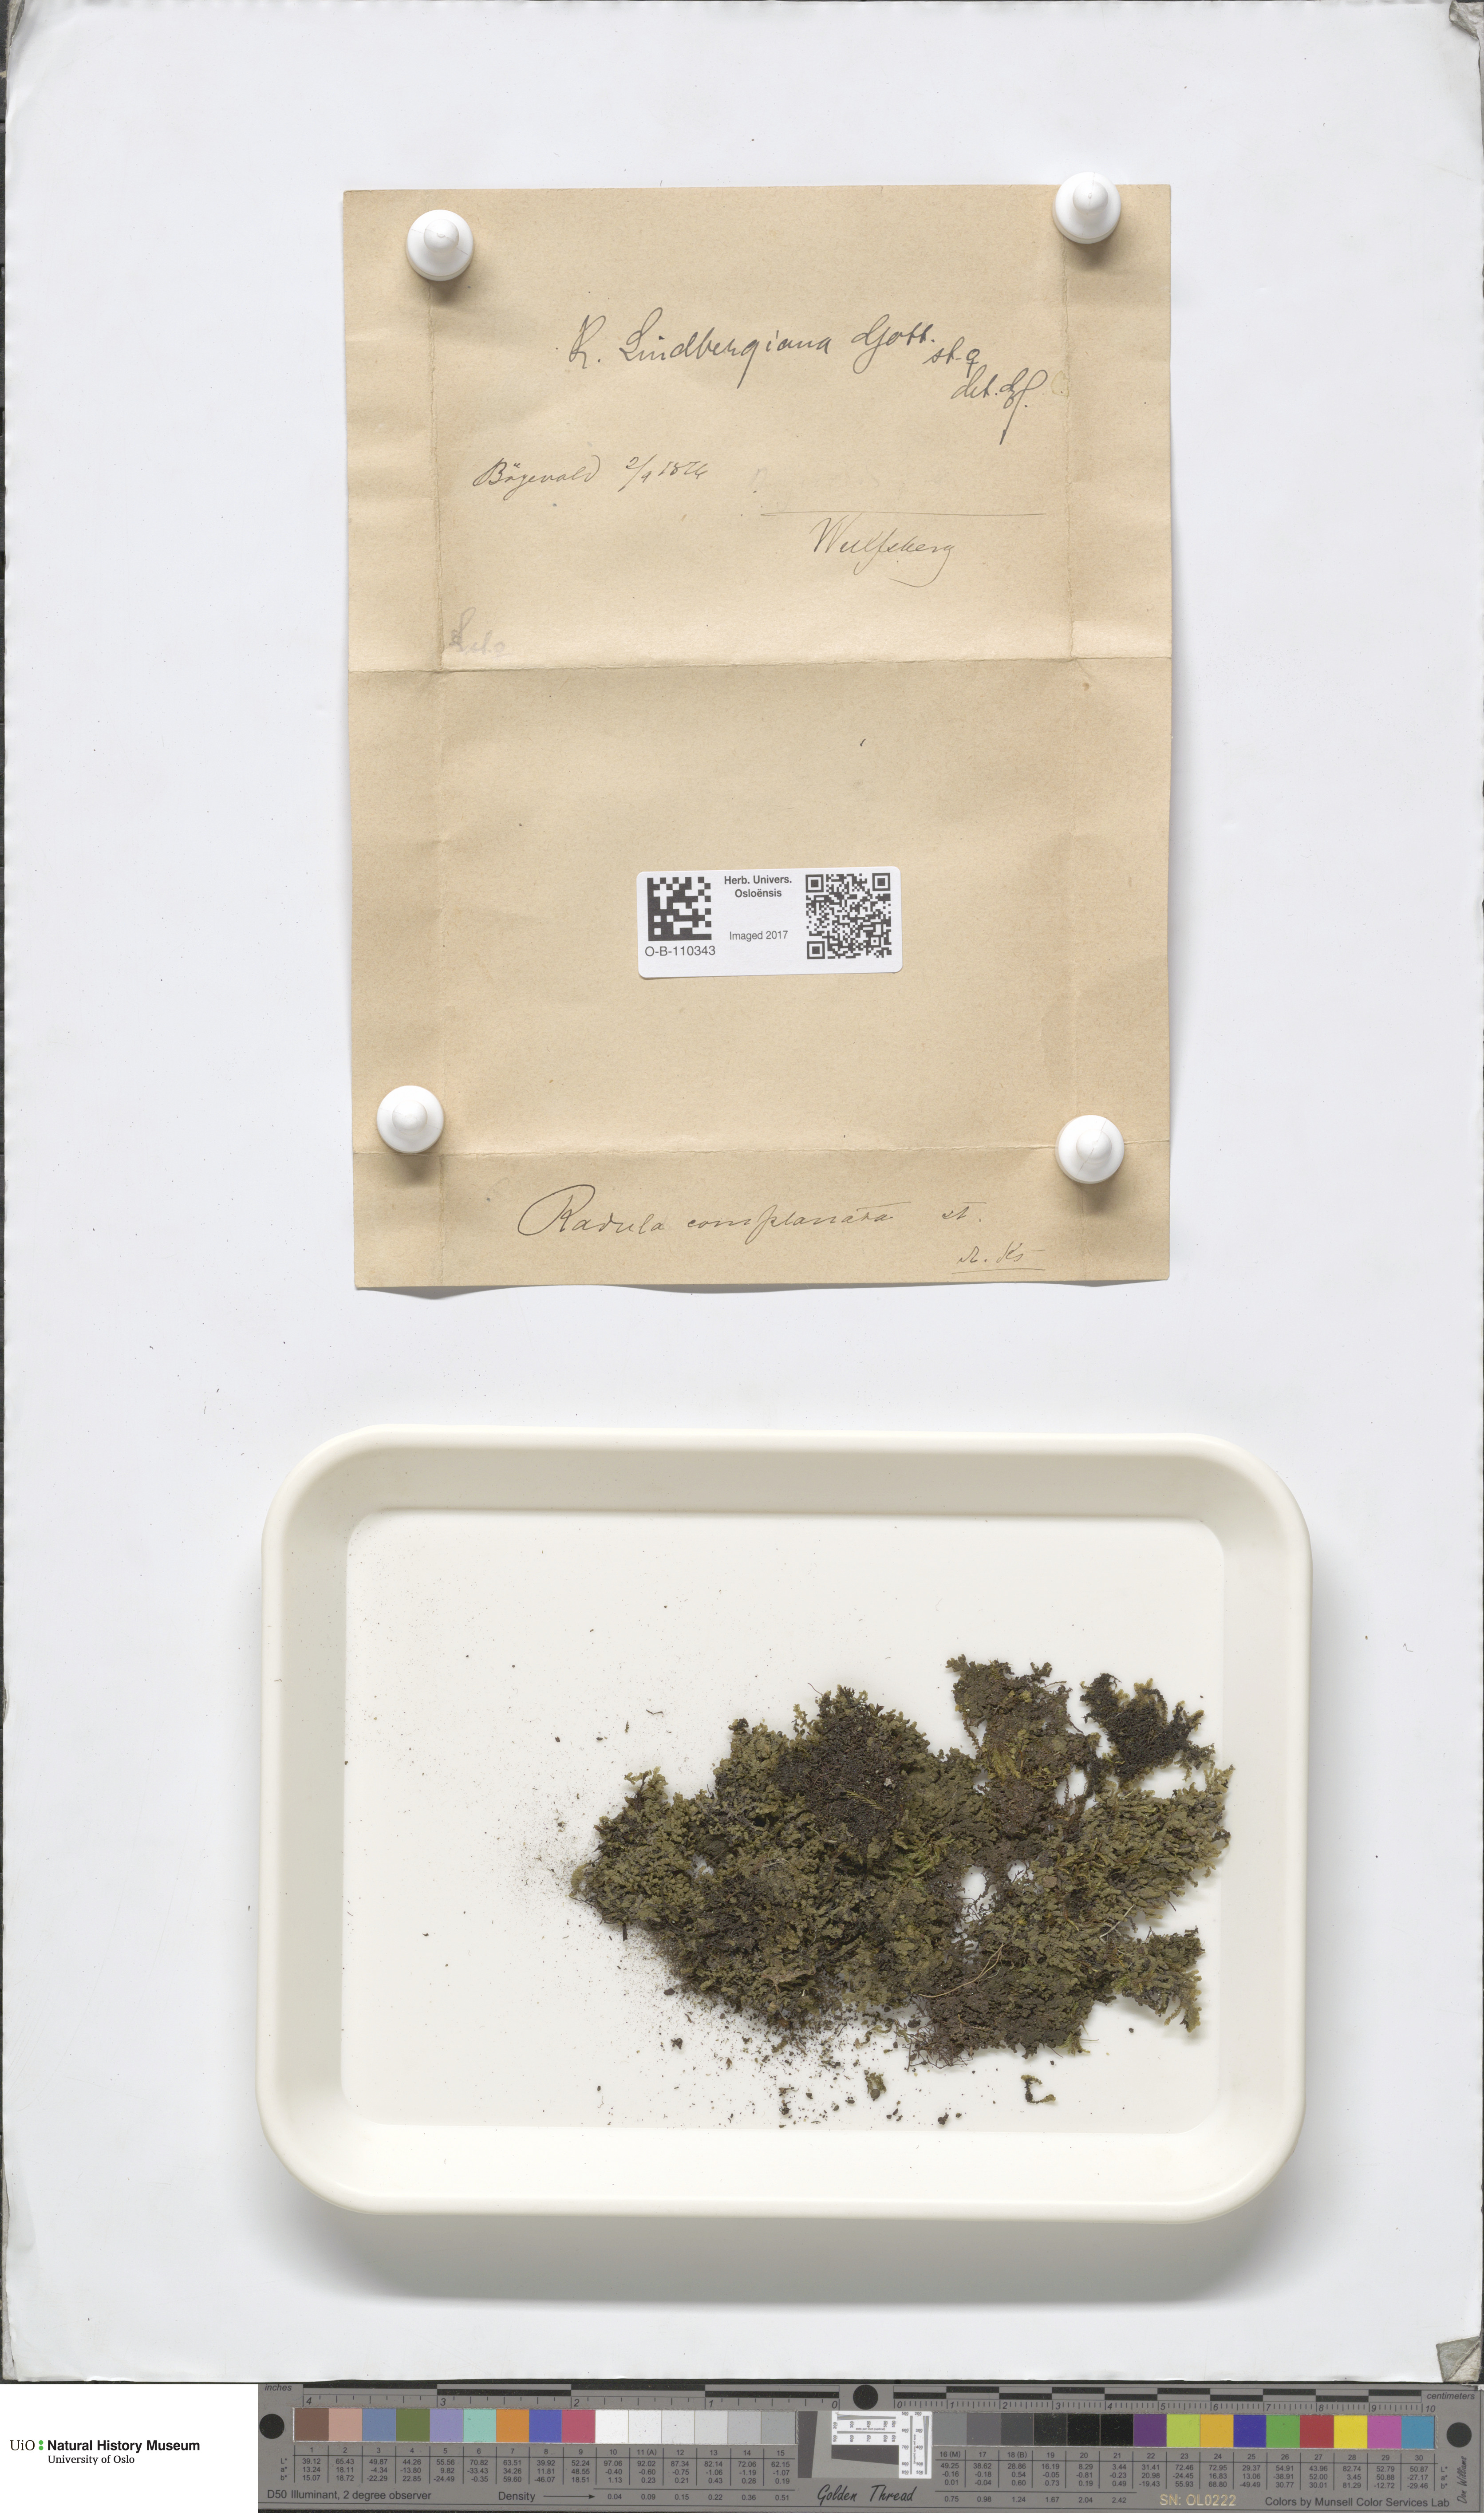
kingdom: Plantae
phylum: Marchantiophyta
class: Jungermanniopsida
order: Porellales
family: Radulaceae
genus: Radula
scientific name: Radula complanata
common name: Flat-leaved scalewort
